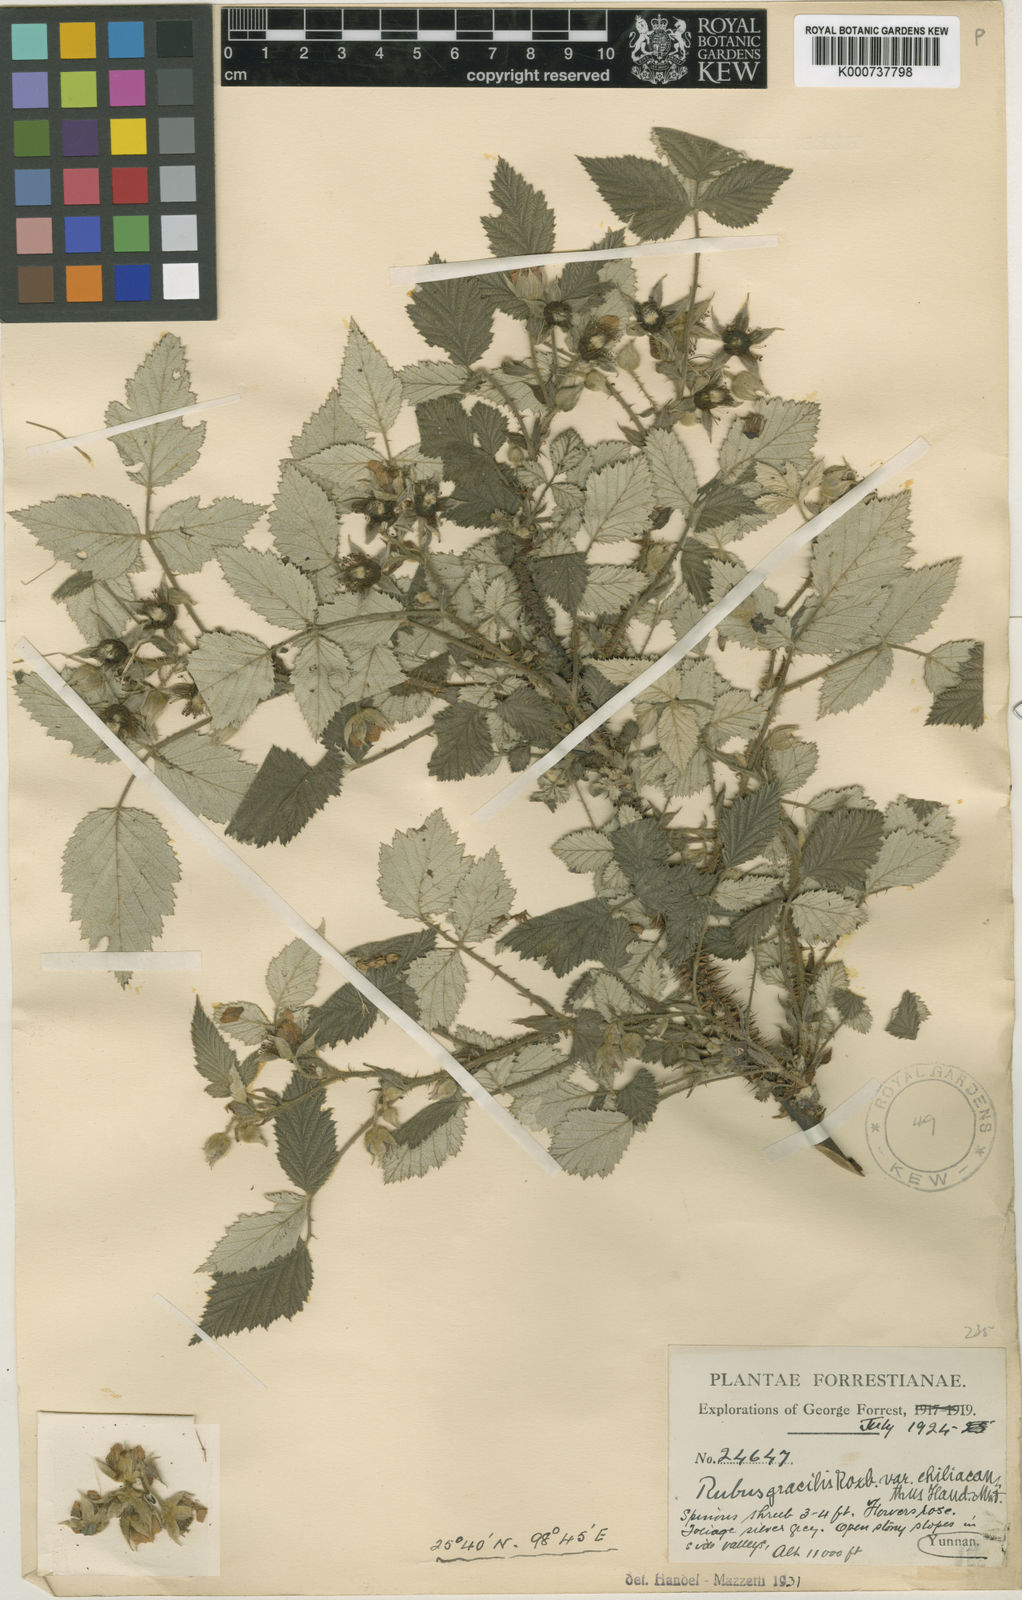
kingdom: Plantae
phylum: Tracheophyta
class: Magnoliopsida
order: Rosales
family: Rosaceae
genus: Rubus
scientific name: Rubus pedunculosus
